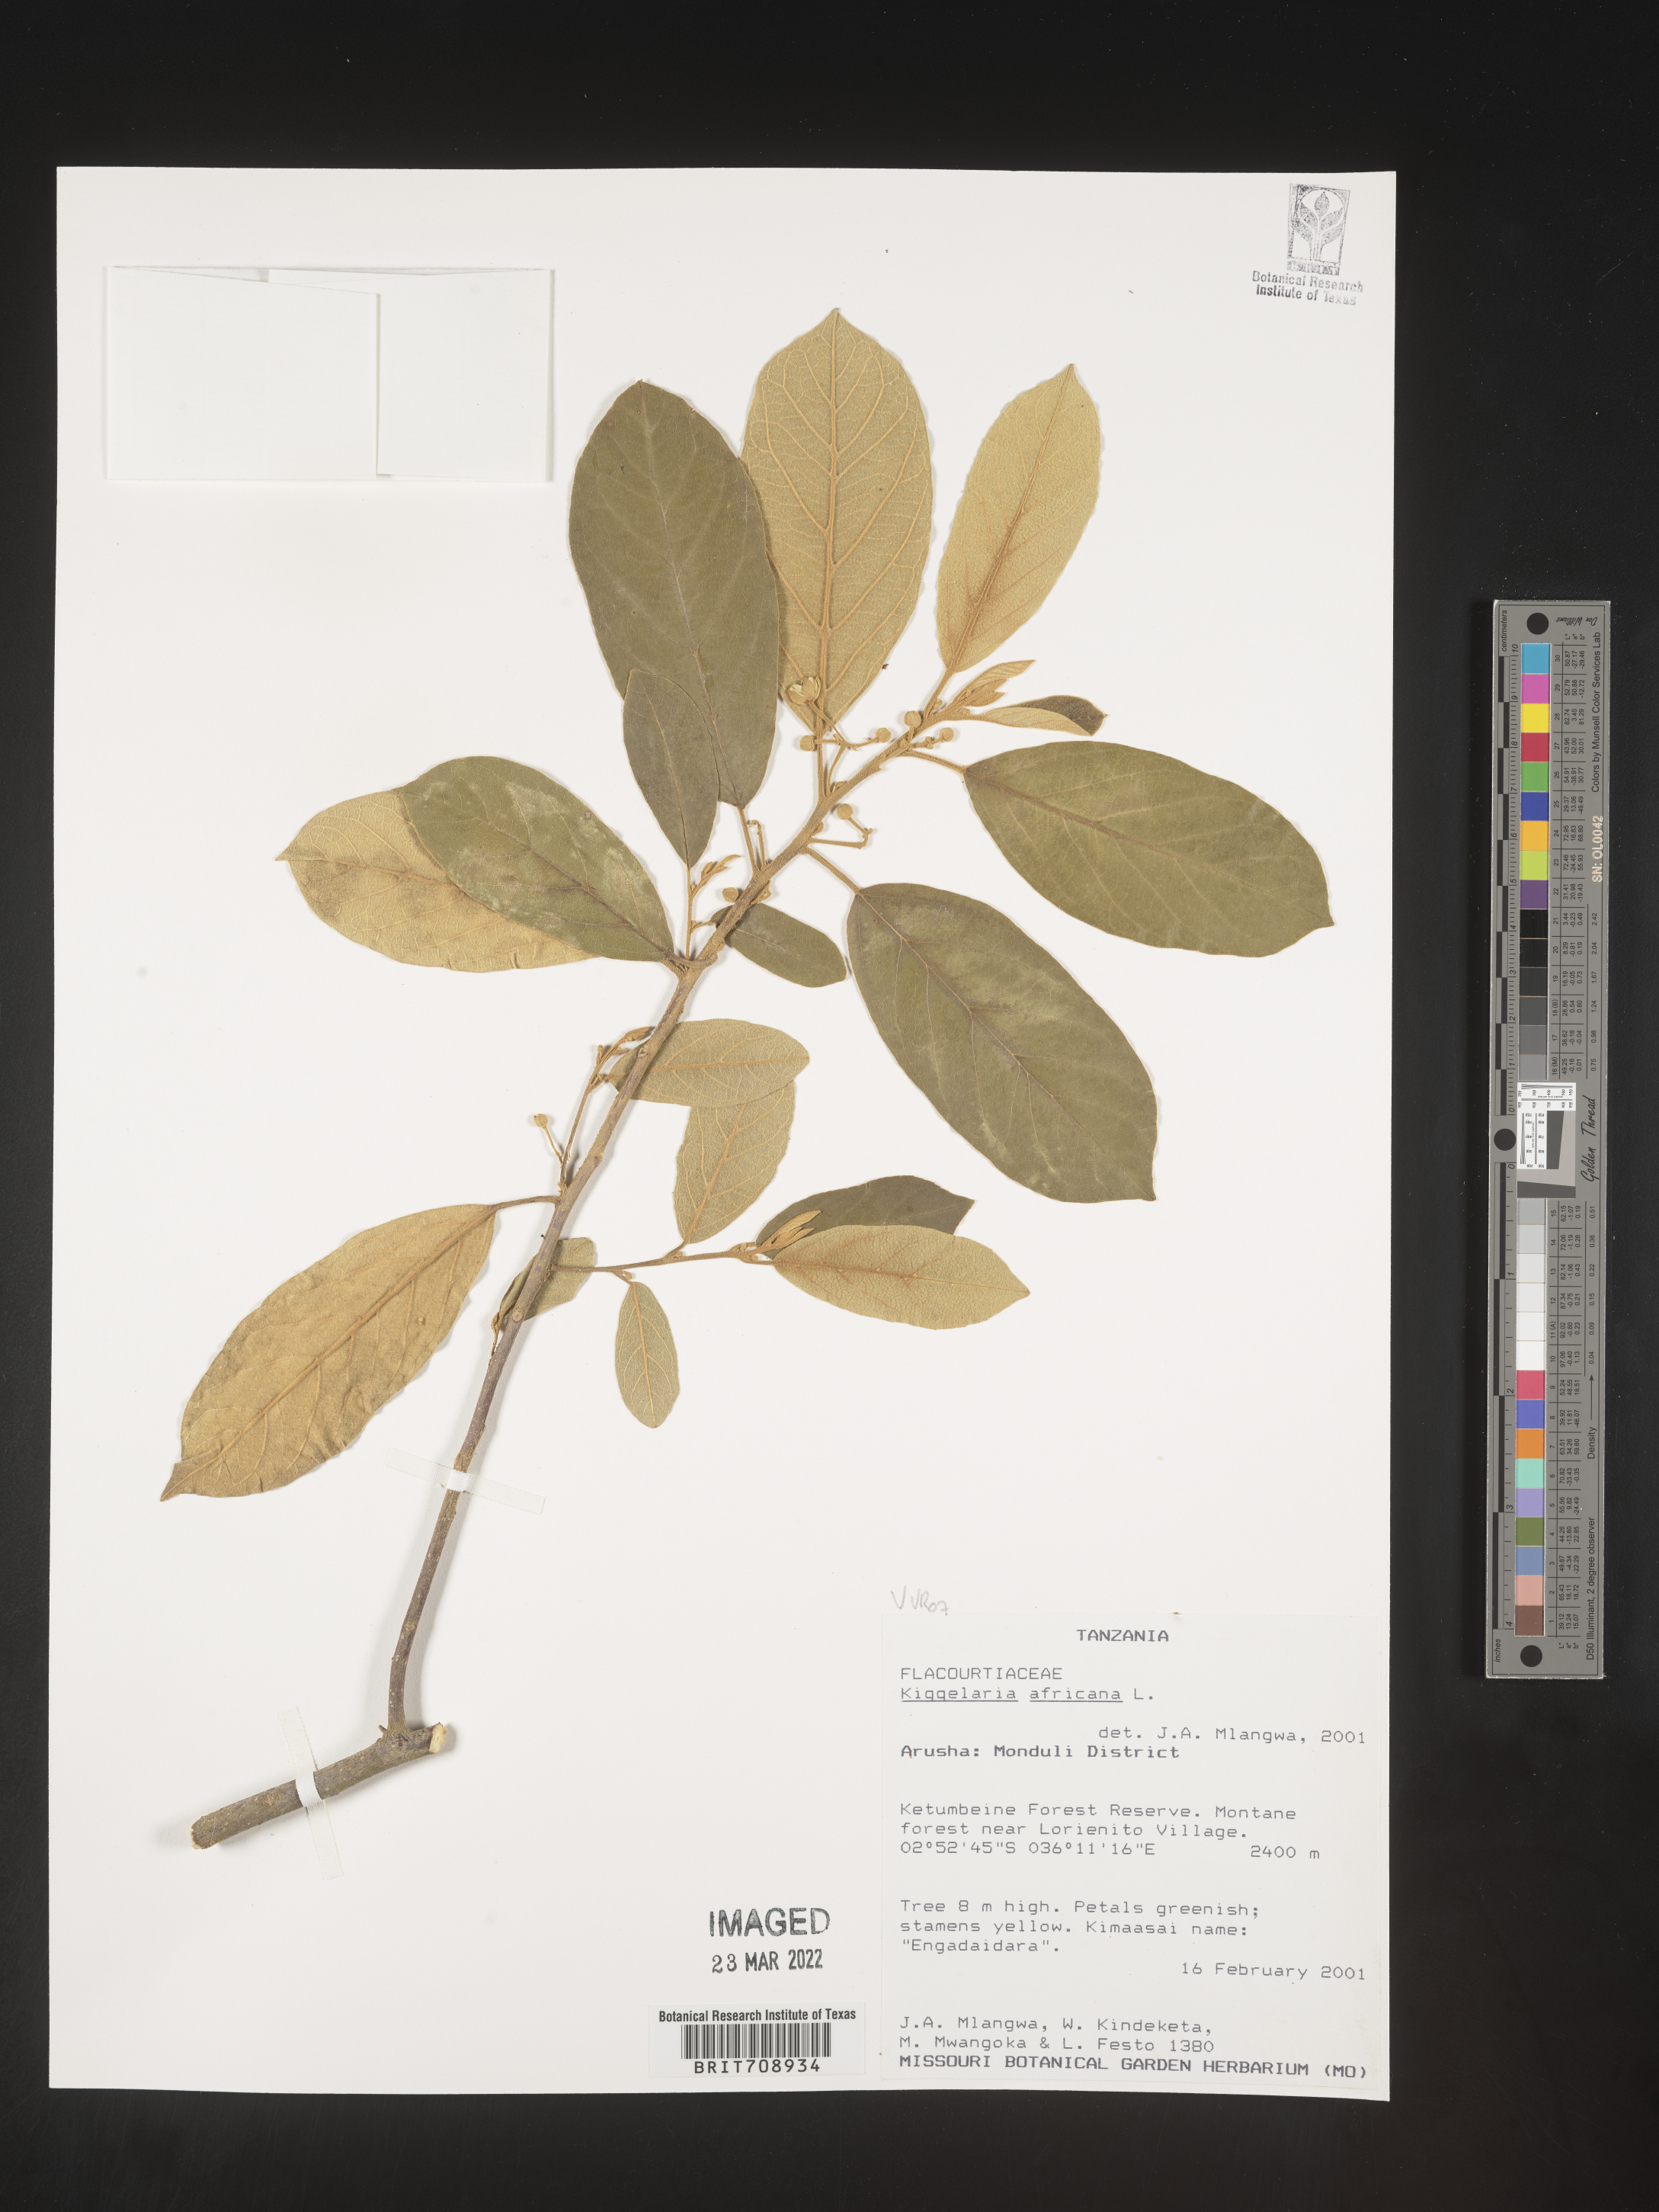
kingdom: Plantae
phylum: Tracheophyta
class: Magnoliopsida
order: Malpighiales
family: Achariaceae
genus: Kiggelaria
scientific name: Kiggelaria
